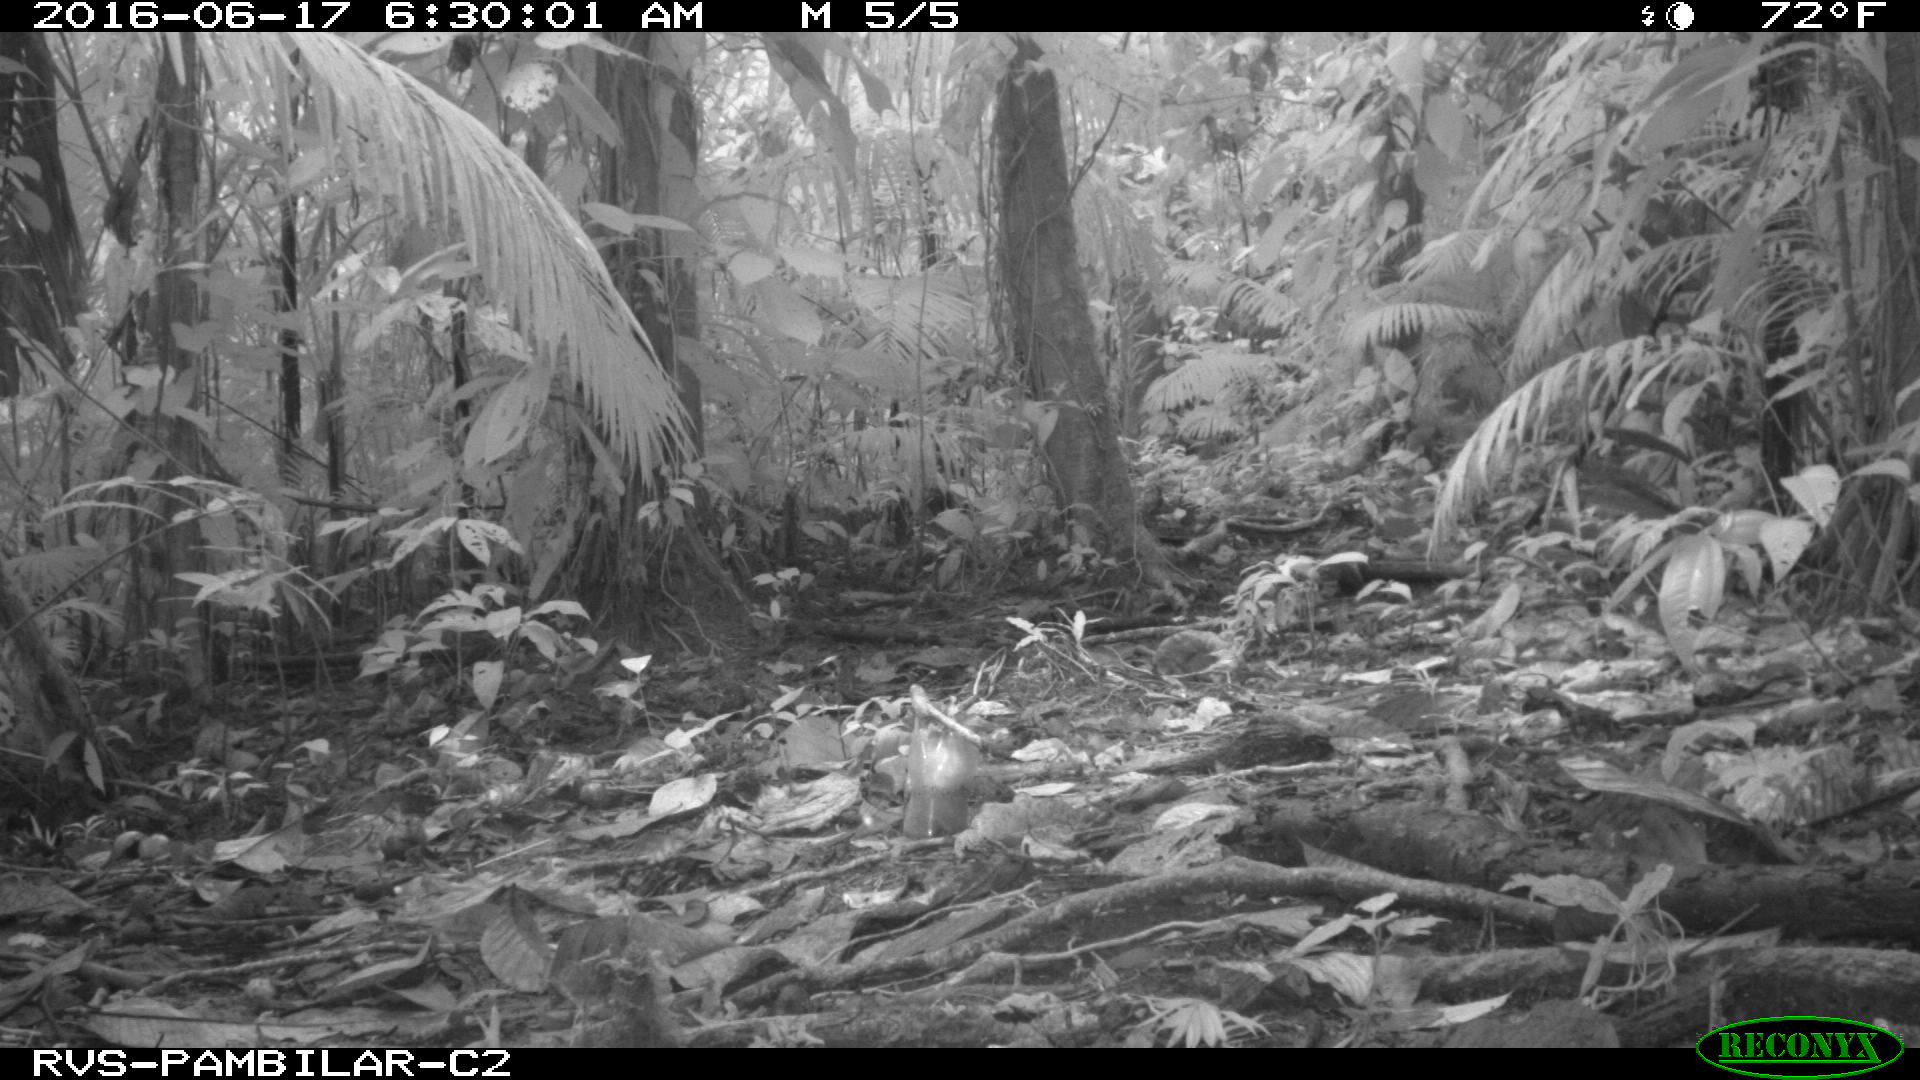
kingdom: Animalia
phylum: Chordata
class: Mammalia
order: Rodentia
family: Dasyproctidae
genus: Dasyprocta
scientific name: Dasyprocta punctata
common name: Central american agouti
